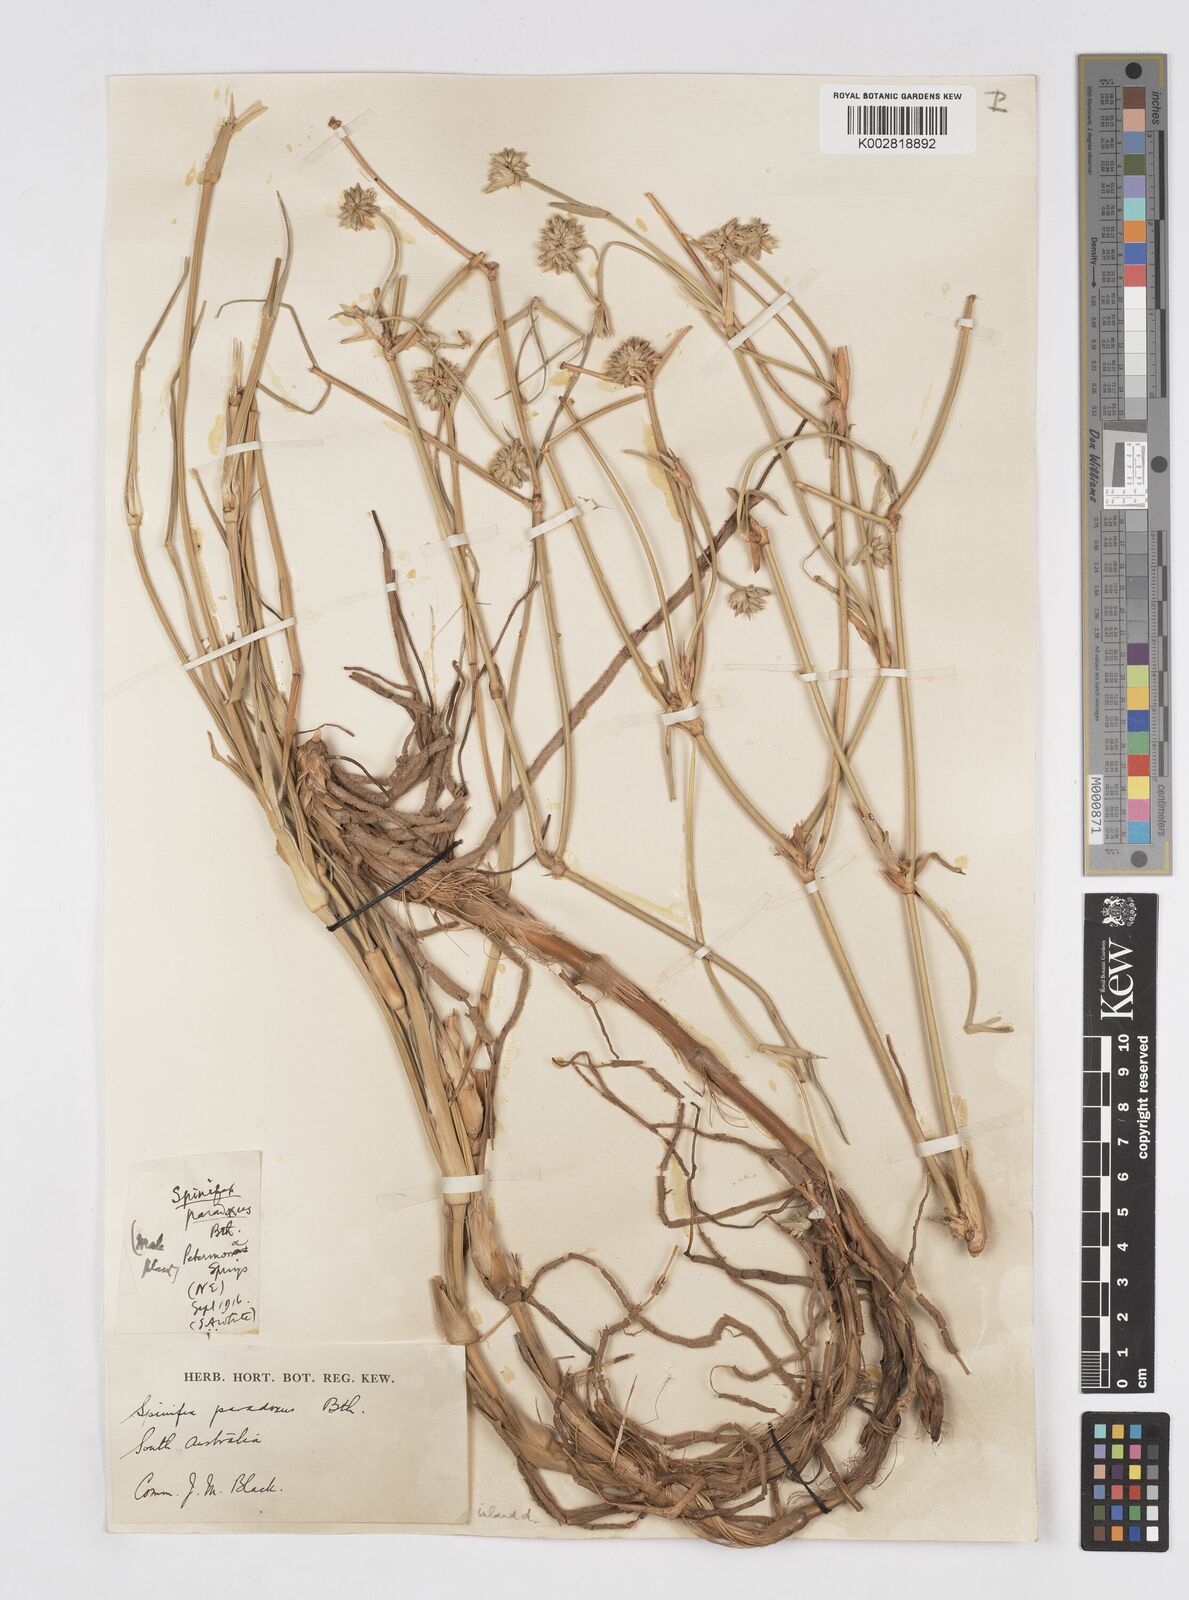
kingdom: Plantae
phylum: Tracheophyta
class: Liliopsida
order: Poales
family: Poaceae
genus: Zygochloa
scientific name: Zygochloa paradoxa
